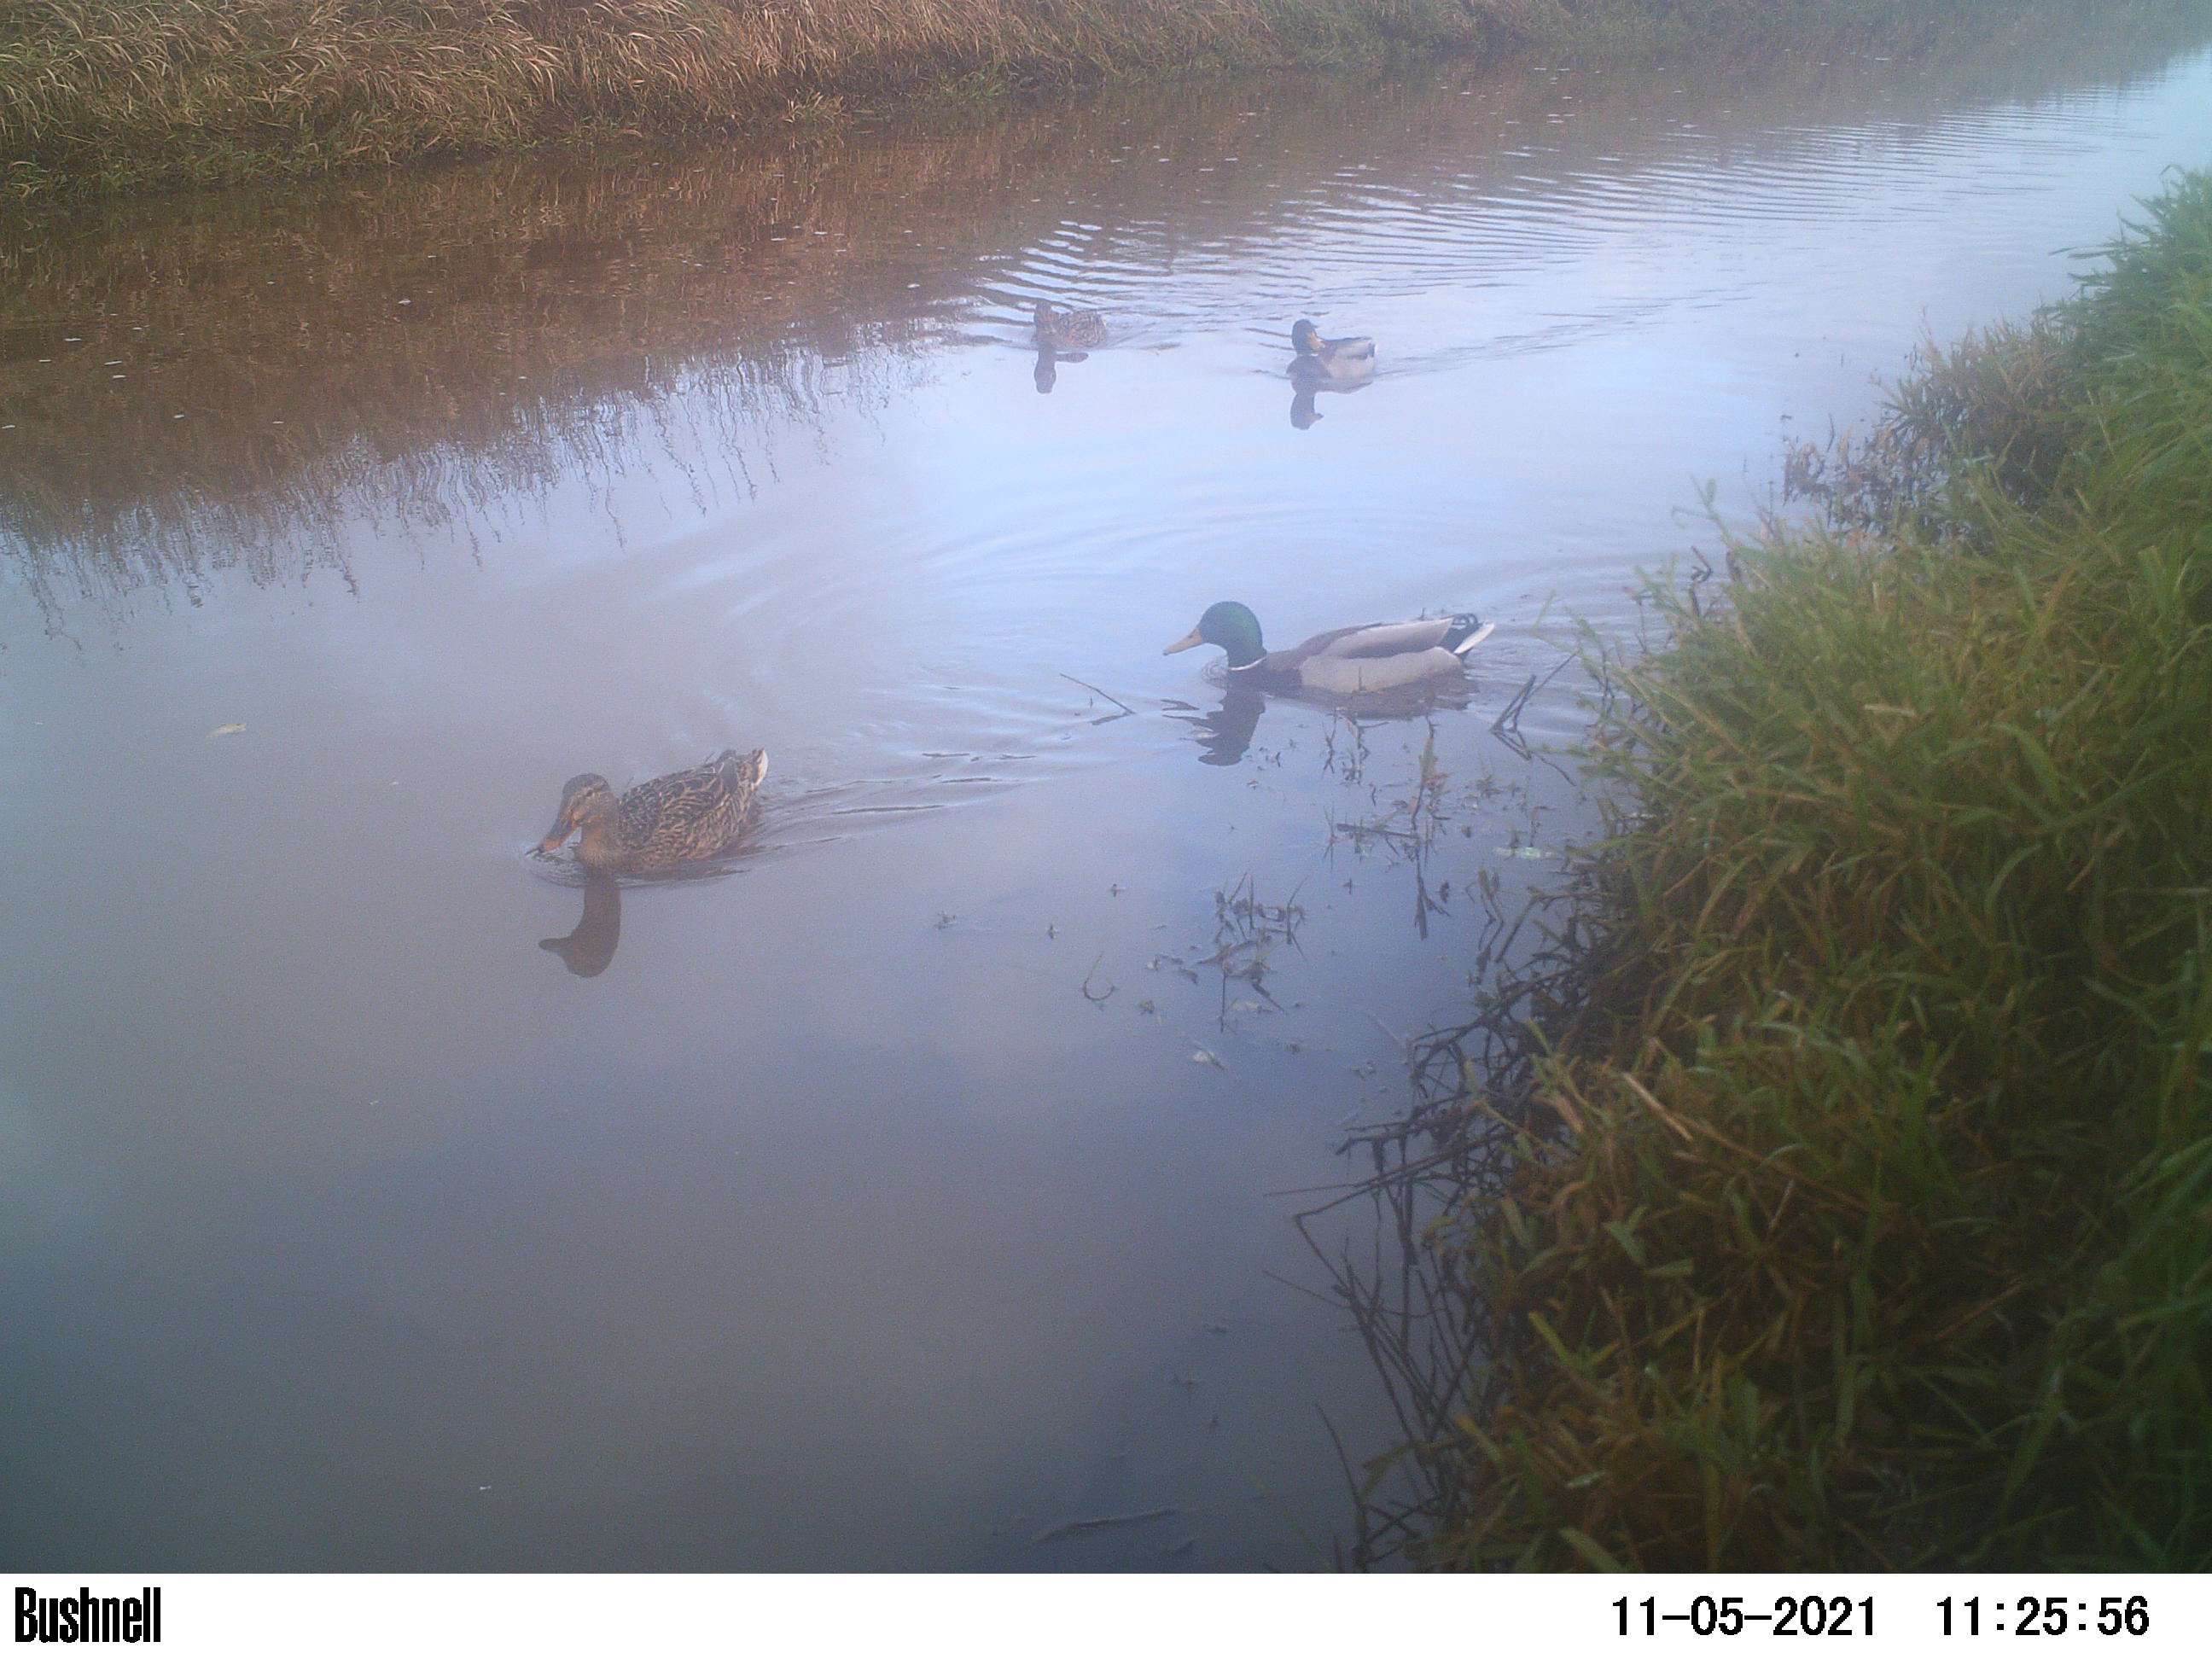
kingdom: Animalia
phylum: Chordata
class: Aves
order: Anseriformes
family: Anatidae
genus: Anas
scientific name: Anas
